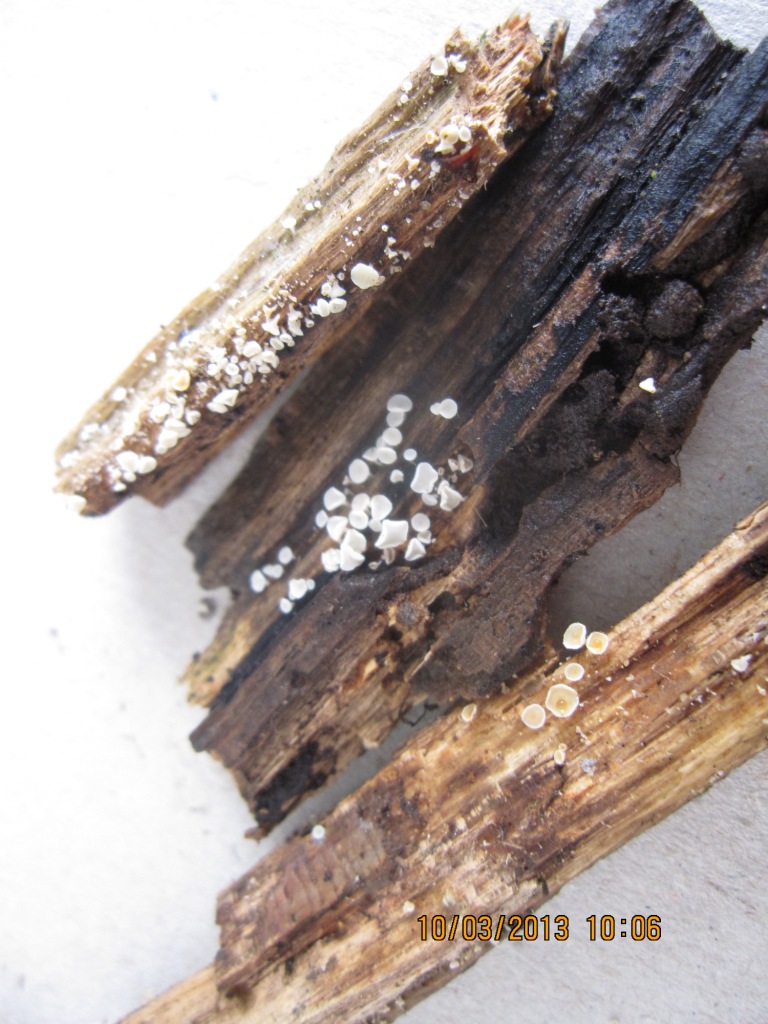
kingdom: Fungi
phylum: Ascomycota
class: Leotiomycetes
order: Helotiales
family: Lachnaceae
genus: Lachnum
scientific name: Lachnum impudicum
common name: vinter-frynseskive
